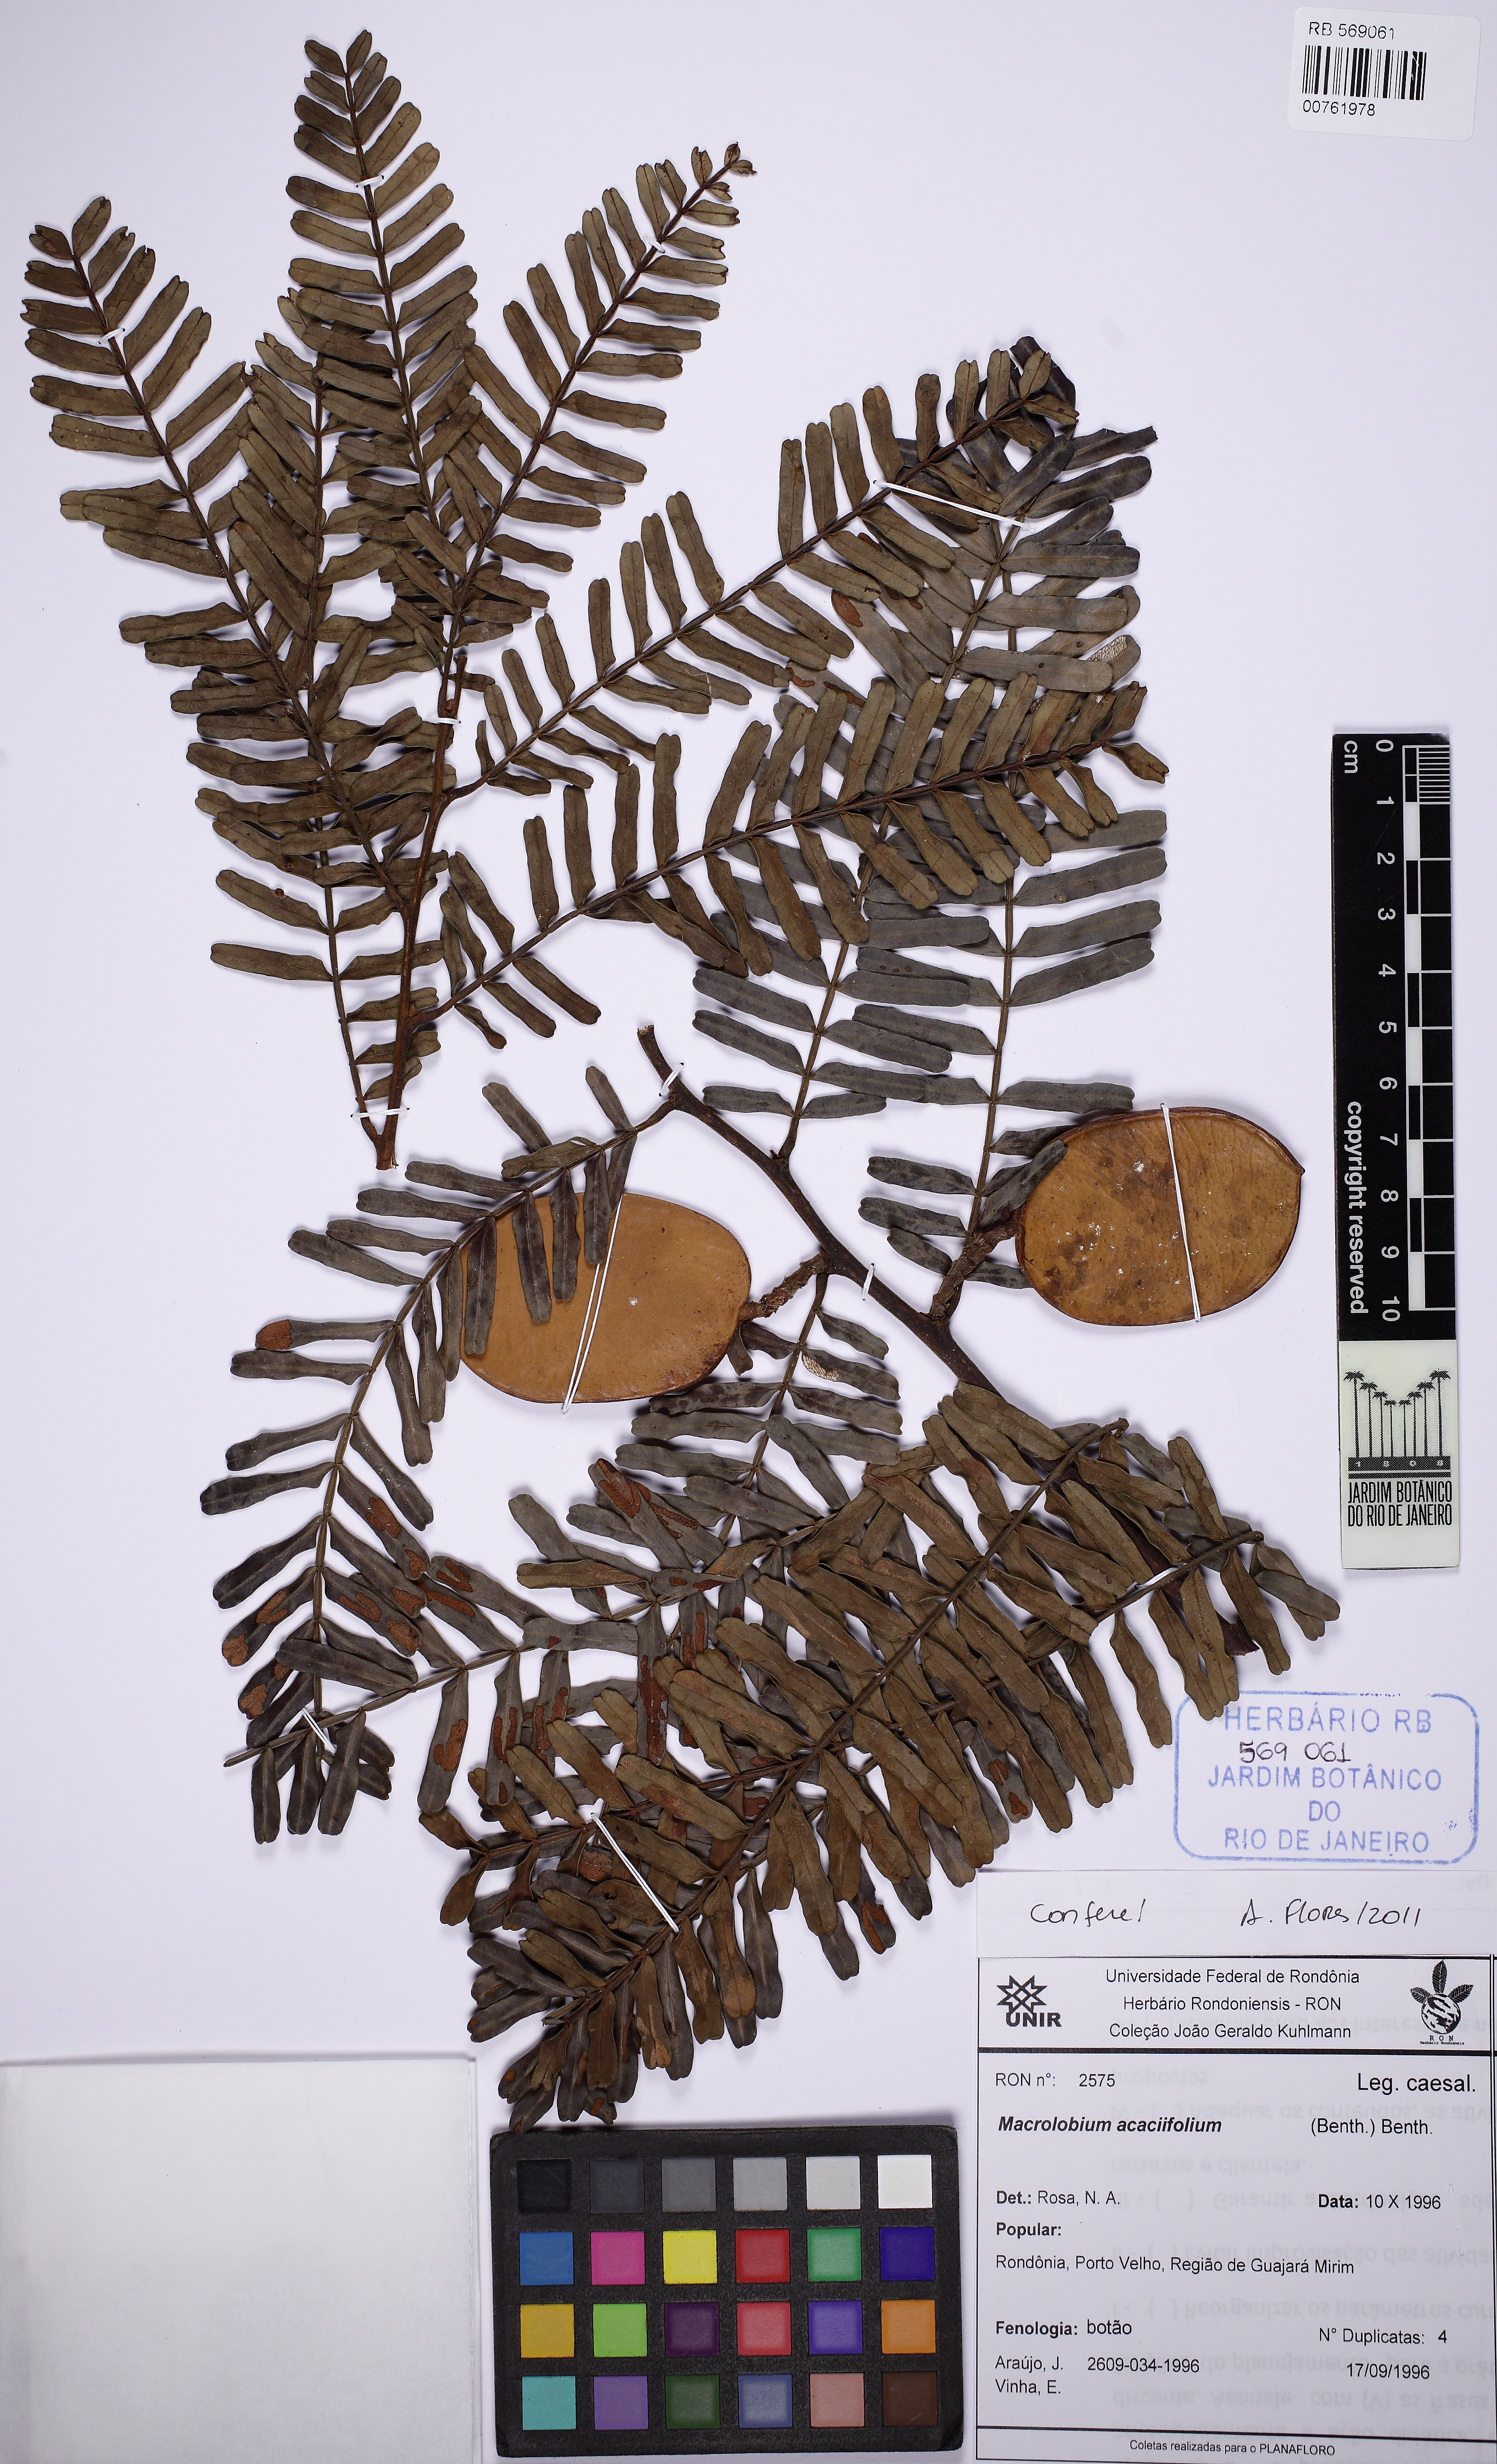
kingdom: Plantae
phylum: Tracheophyta
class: Magnoliopsida
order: Fabales
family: Fabaceae
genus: Macrolobium
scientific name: Macrolobium acaciifolium
